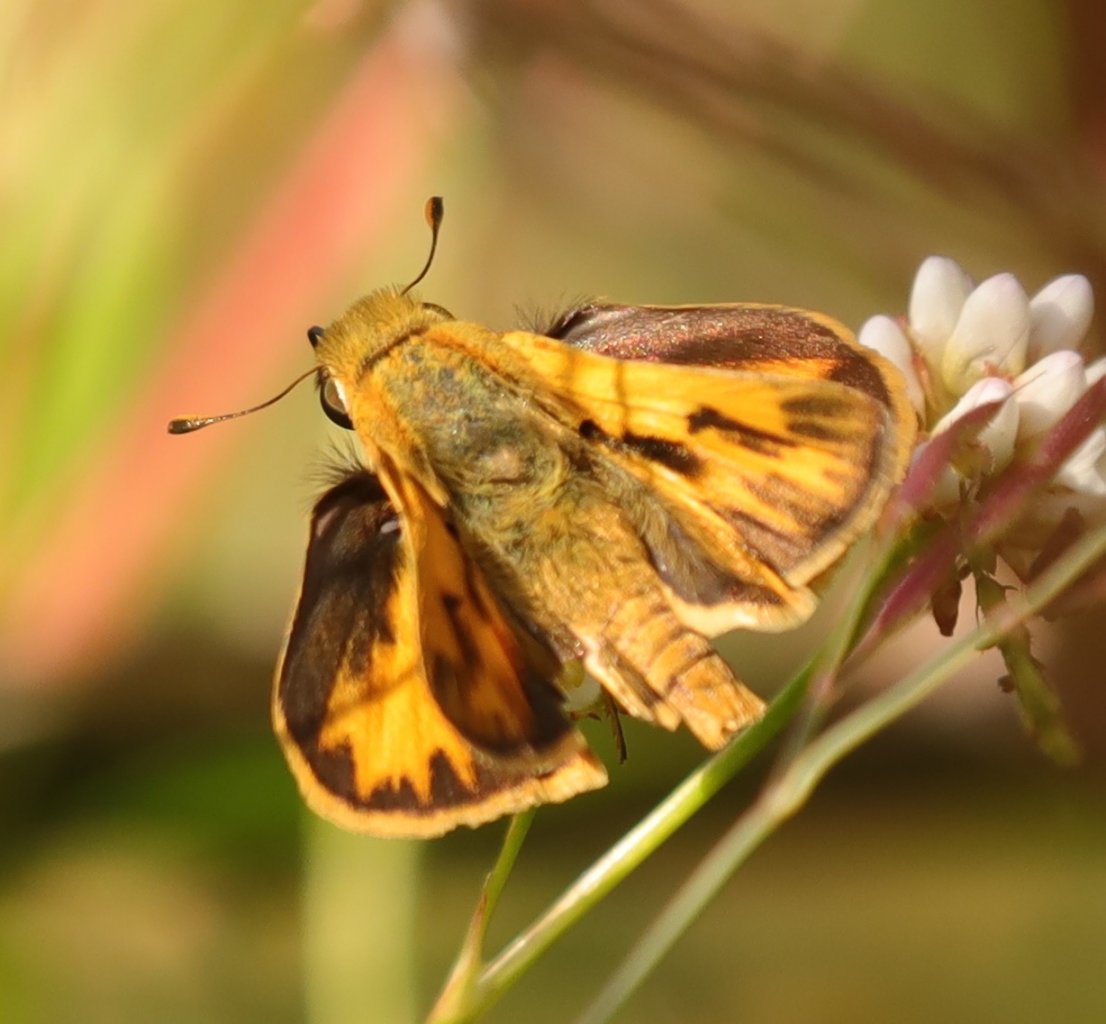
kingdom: Animalia
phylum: Arthropoda
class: Insecta
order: Lepidoptera
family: Hesperiidae
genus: Hylephila
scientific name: Hylephila phyleus
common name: Fiery Skipper
